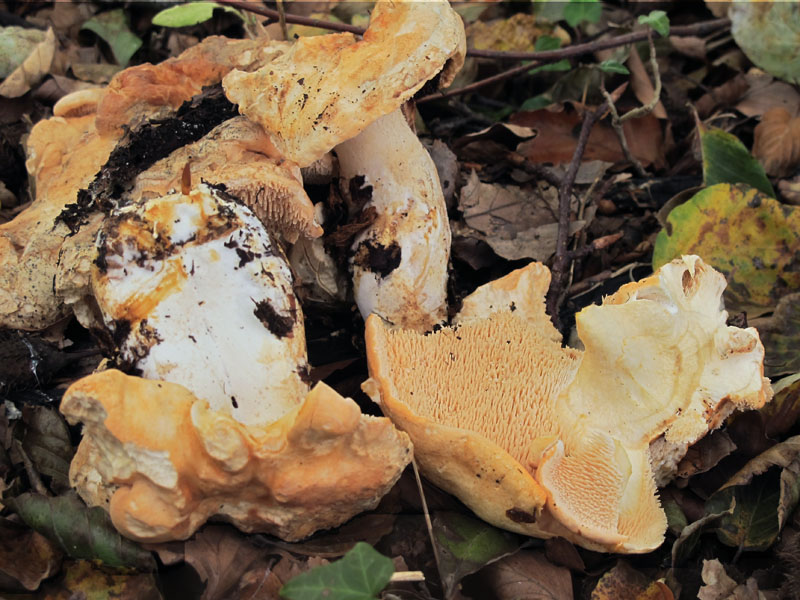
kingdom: Fungi
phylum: Basidiomycota
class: Agaricomycetes
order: Cantharellales
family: Hydnaceae
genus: Hydnum
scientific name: Hydnum repandum
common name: almindelig pigsvamp
